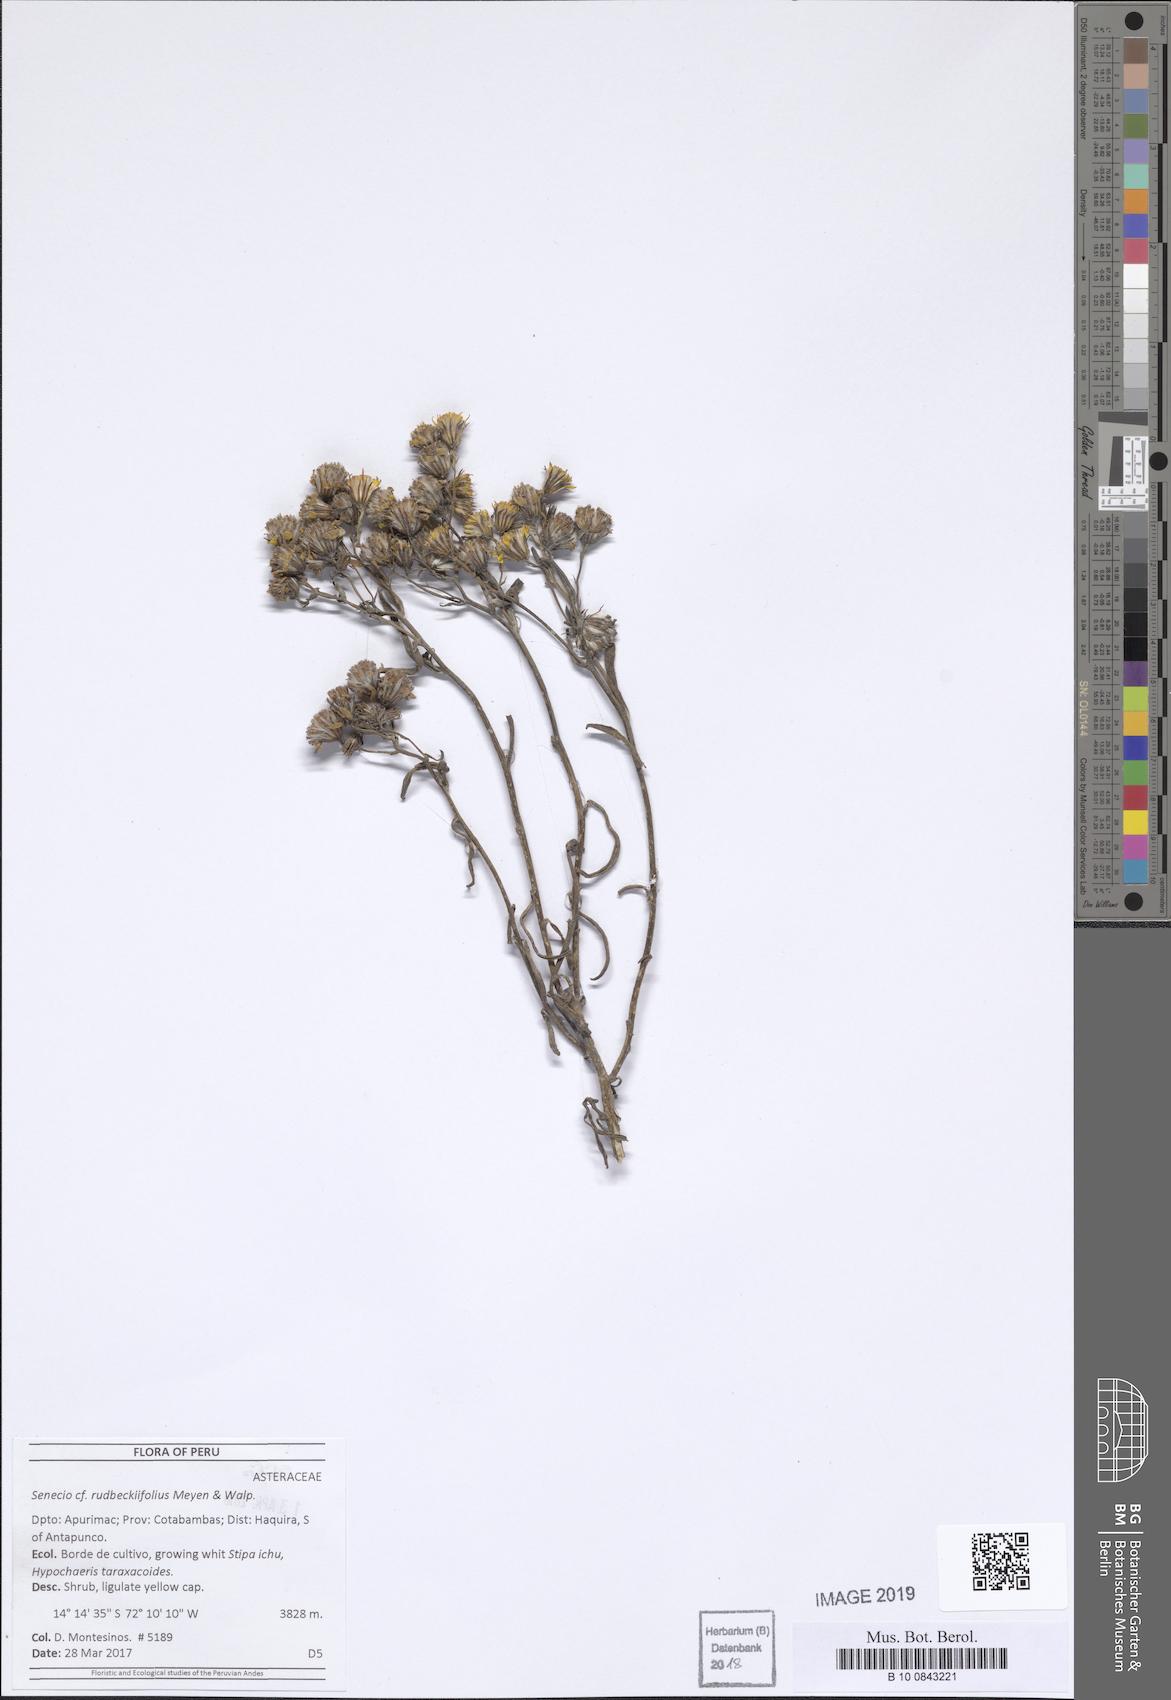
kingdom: Plantae
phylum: Tracheophyta
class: Magnoliopsida
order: Asterales
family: Asteraceae
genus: Senecio
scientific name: Senecio rudbeckiifolius
